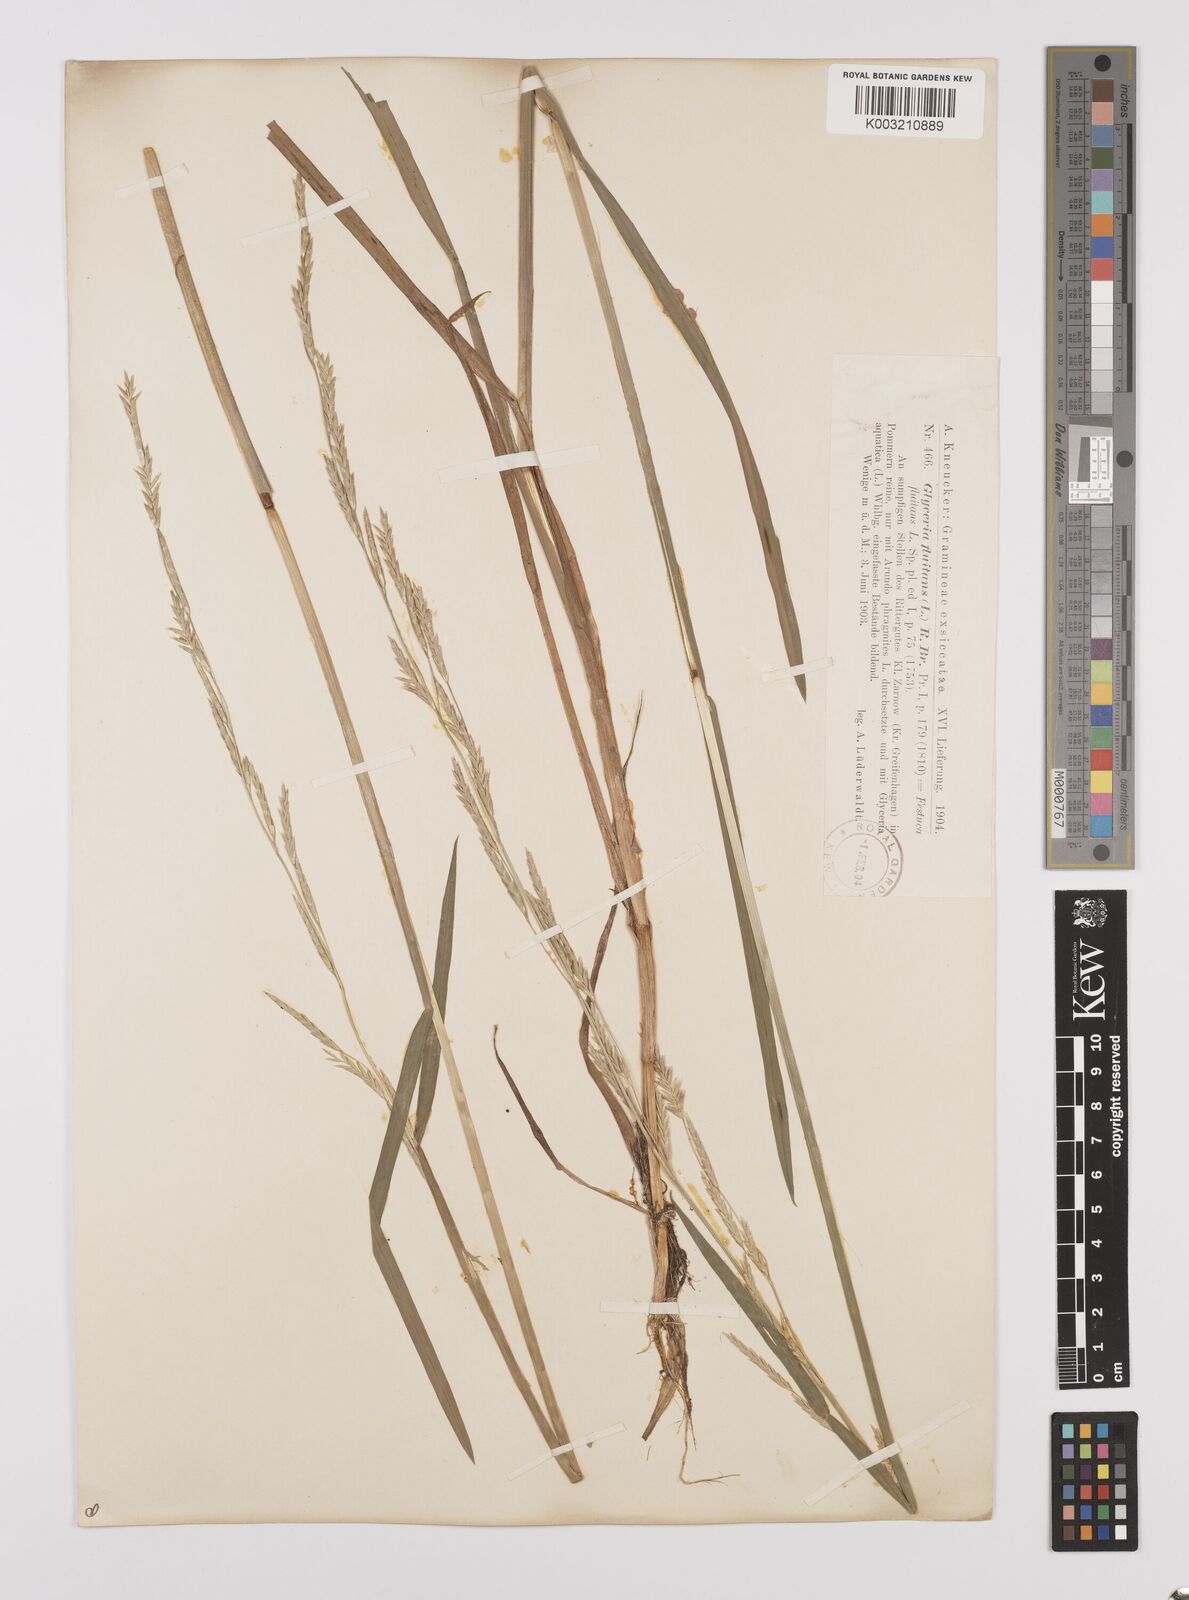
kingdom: Plantae
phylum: Tracheophyta
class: Liliopsida
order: Poales
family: Poaceae
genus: Glyceria
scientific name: Glyceria fluitans
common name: Floating sweet-grass
